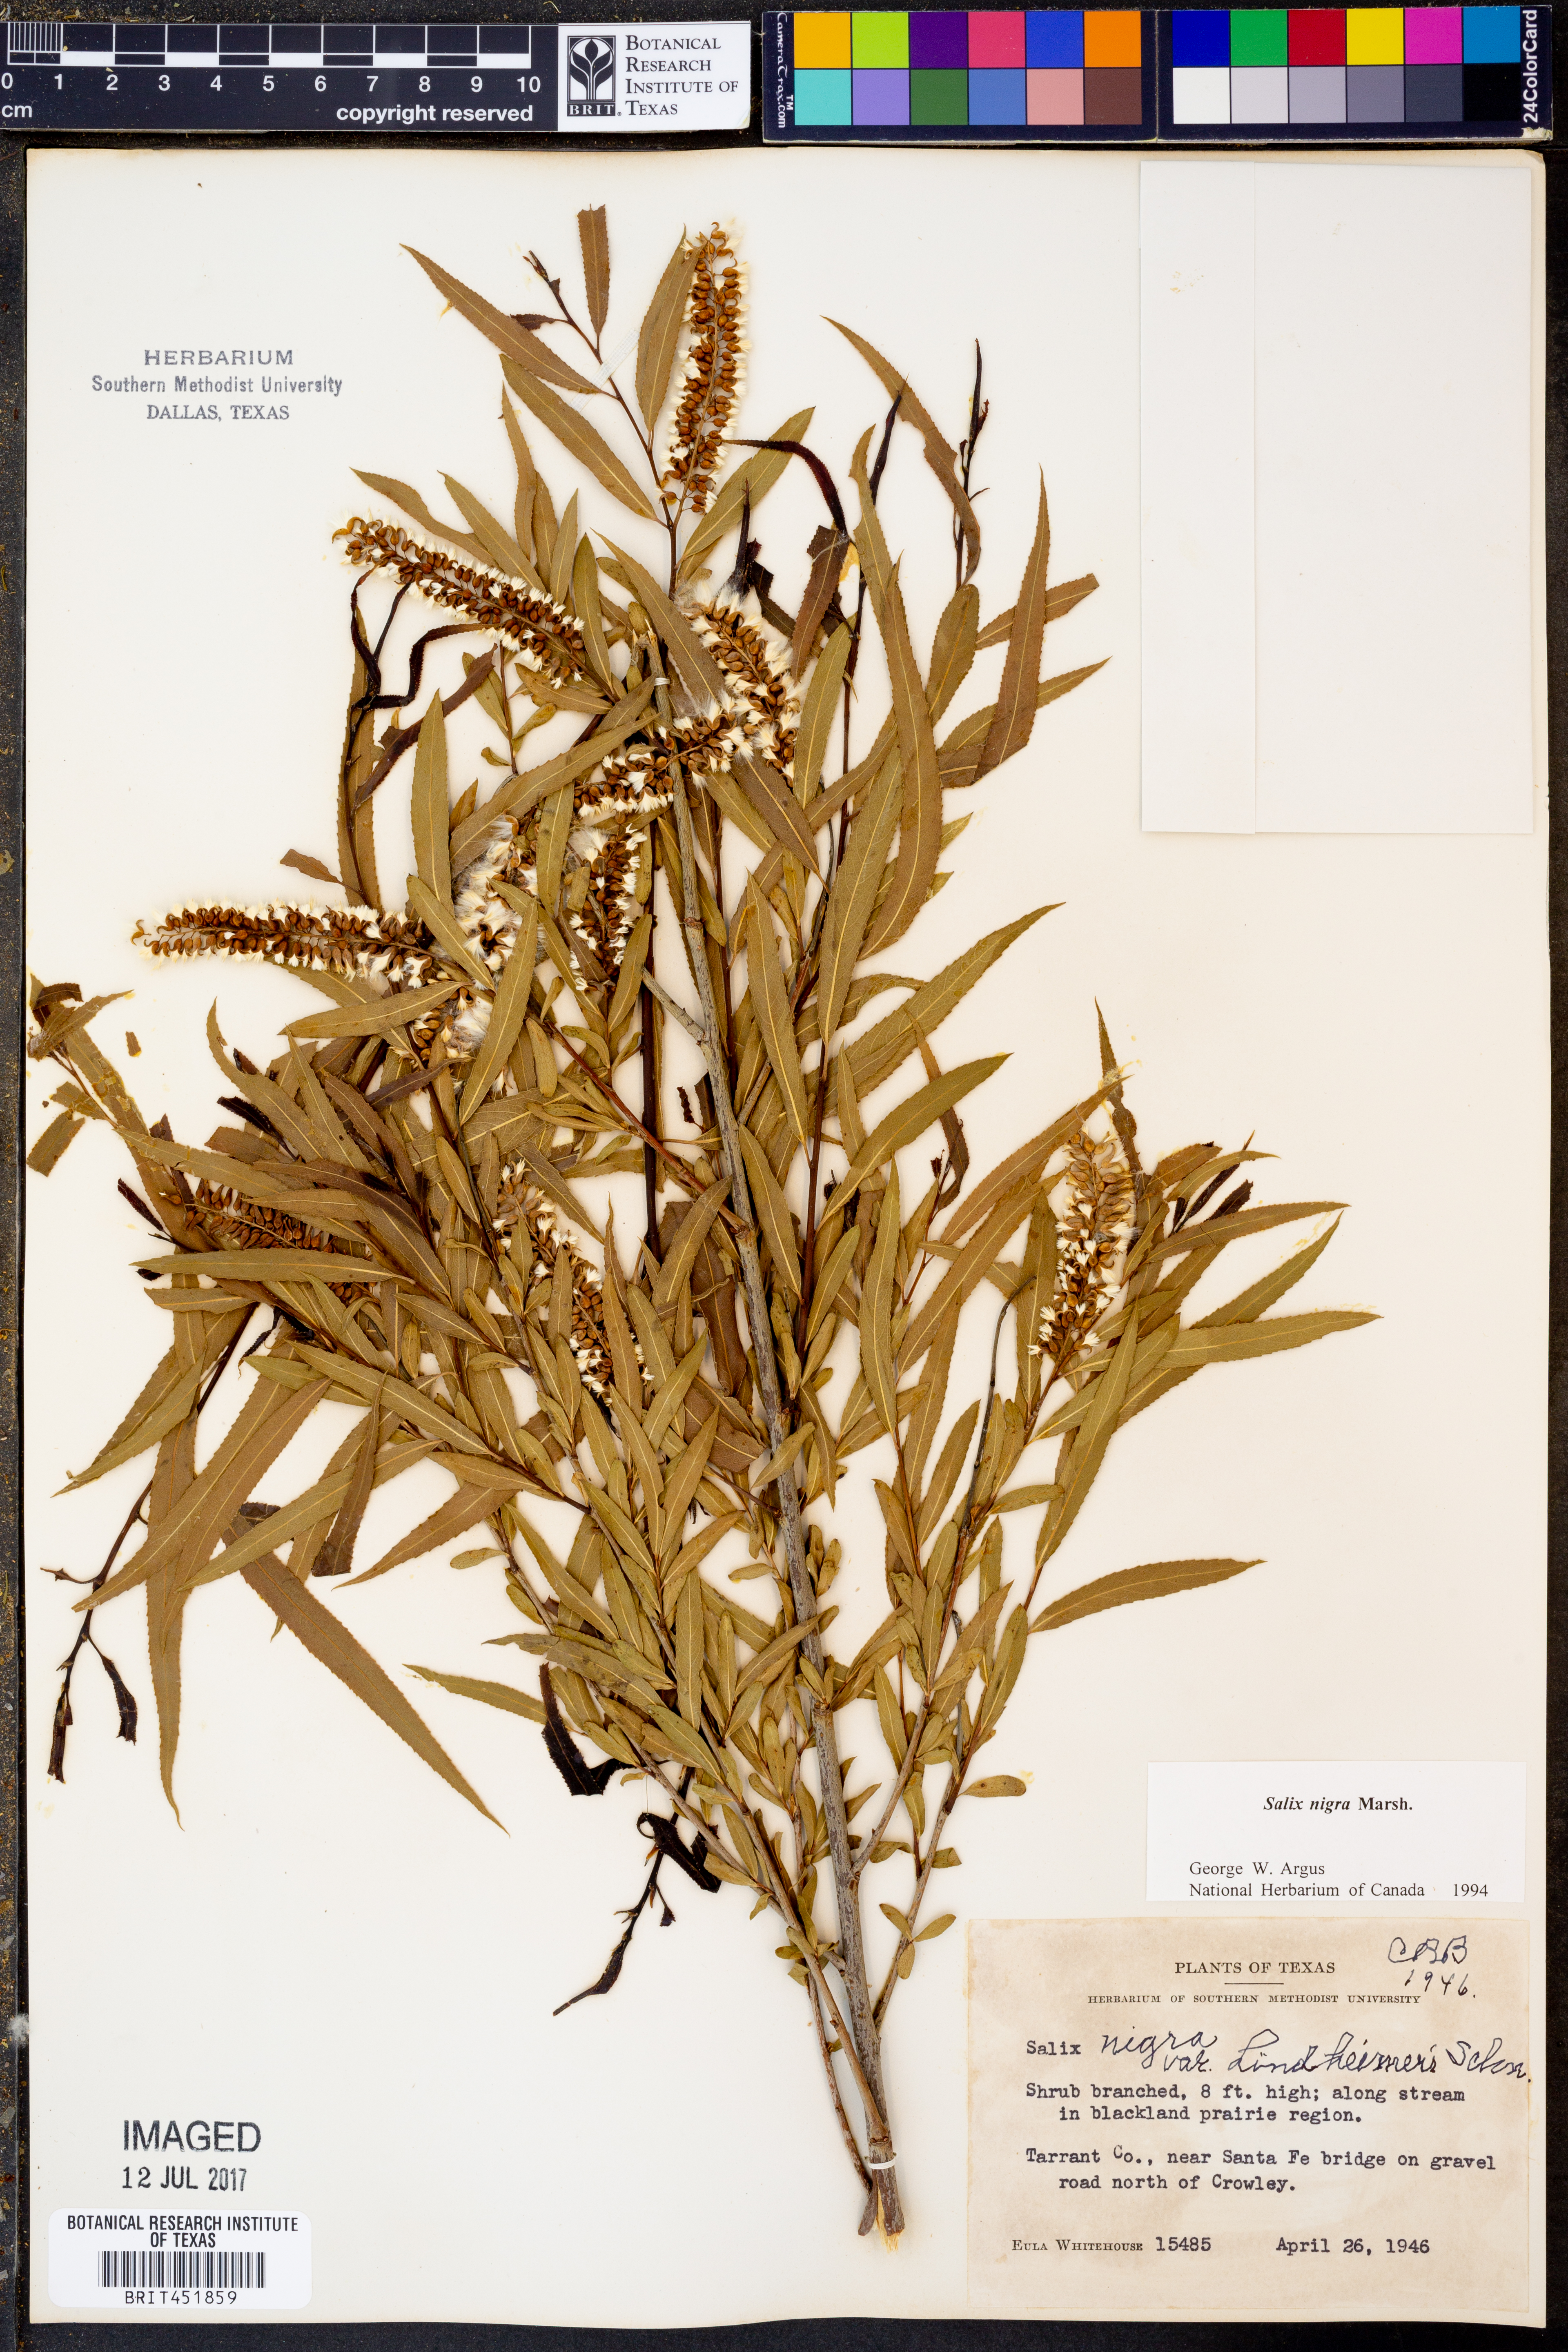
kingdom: Plantae
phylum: Tracheophyta
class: Magnoliopsida
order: Malpighiales
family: Salicaceae
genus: Salix
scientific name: Salix nigra
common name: Black willow
